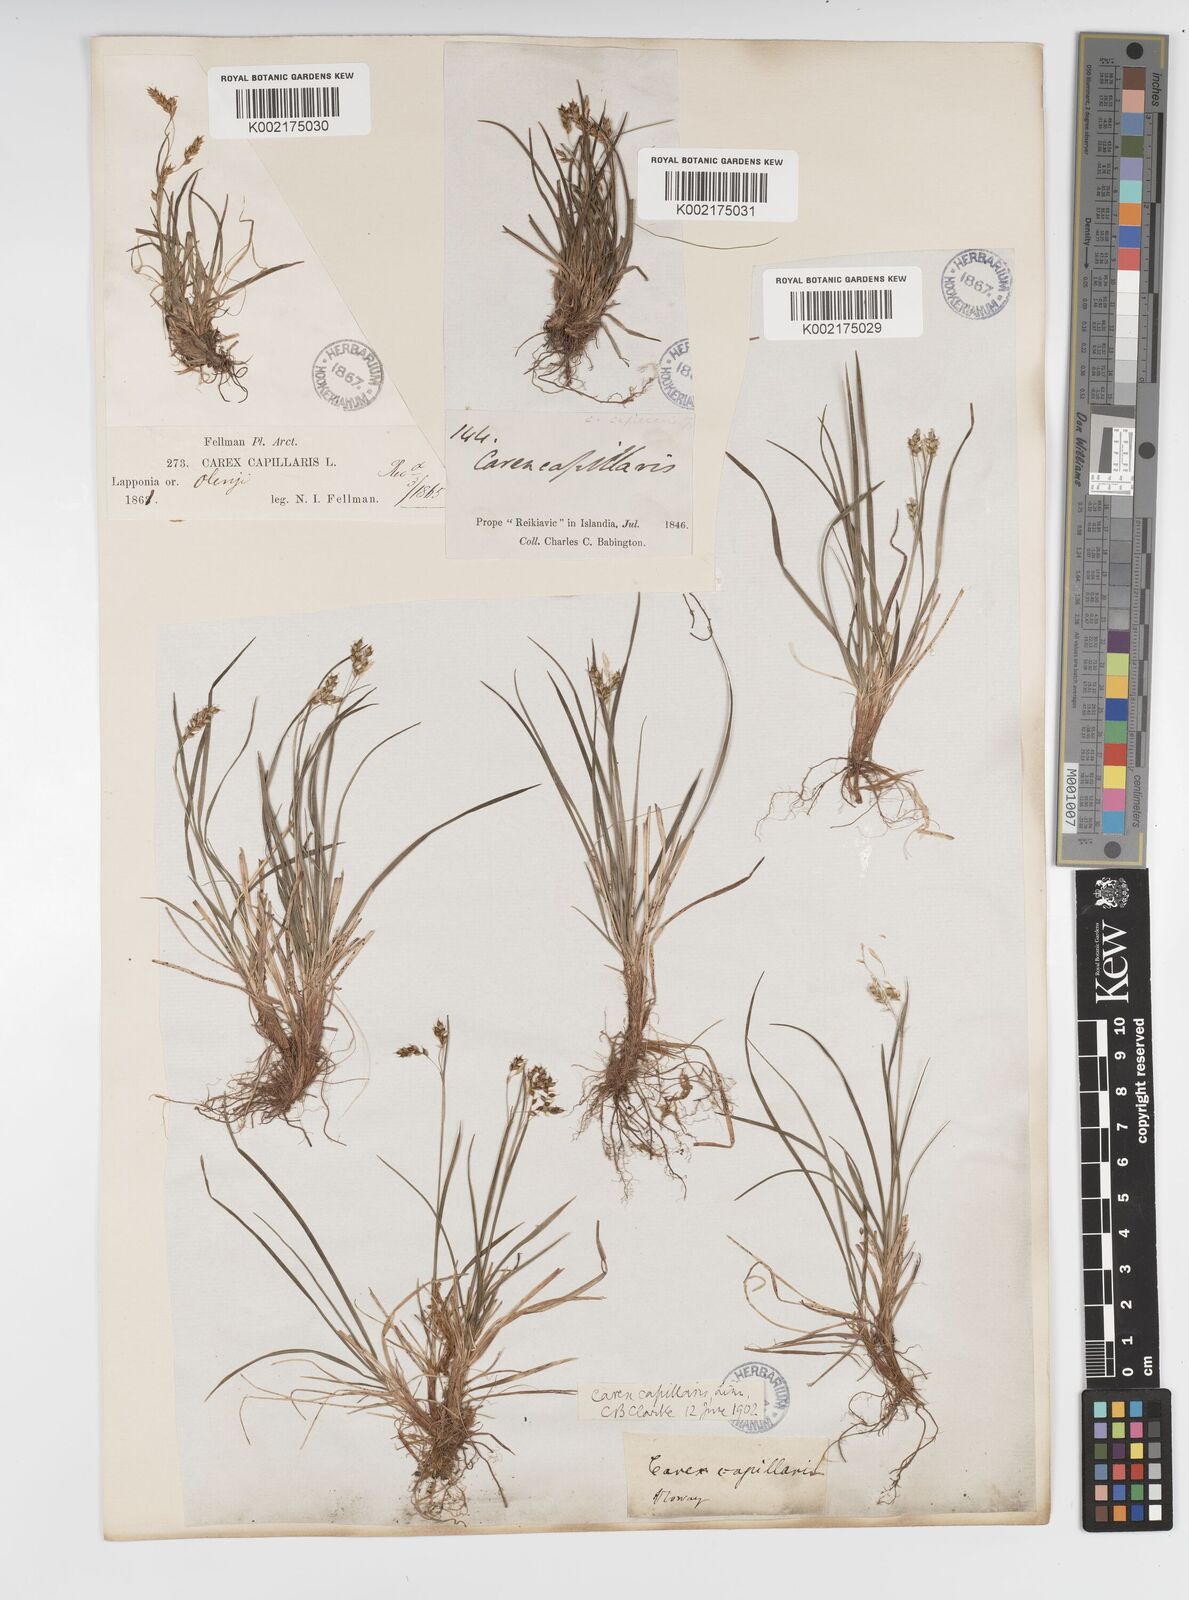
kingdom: Plantae
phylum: Tracheophyta
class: Liliopsida
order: Poales
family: Cyperaceae
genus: Carex
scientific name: Carex capillaris
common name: Hair sedge
